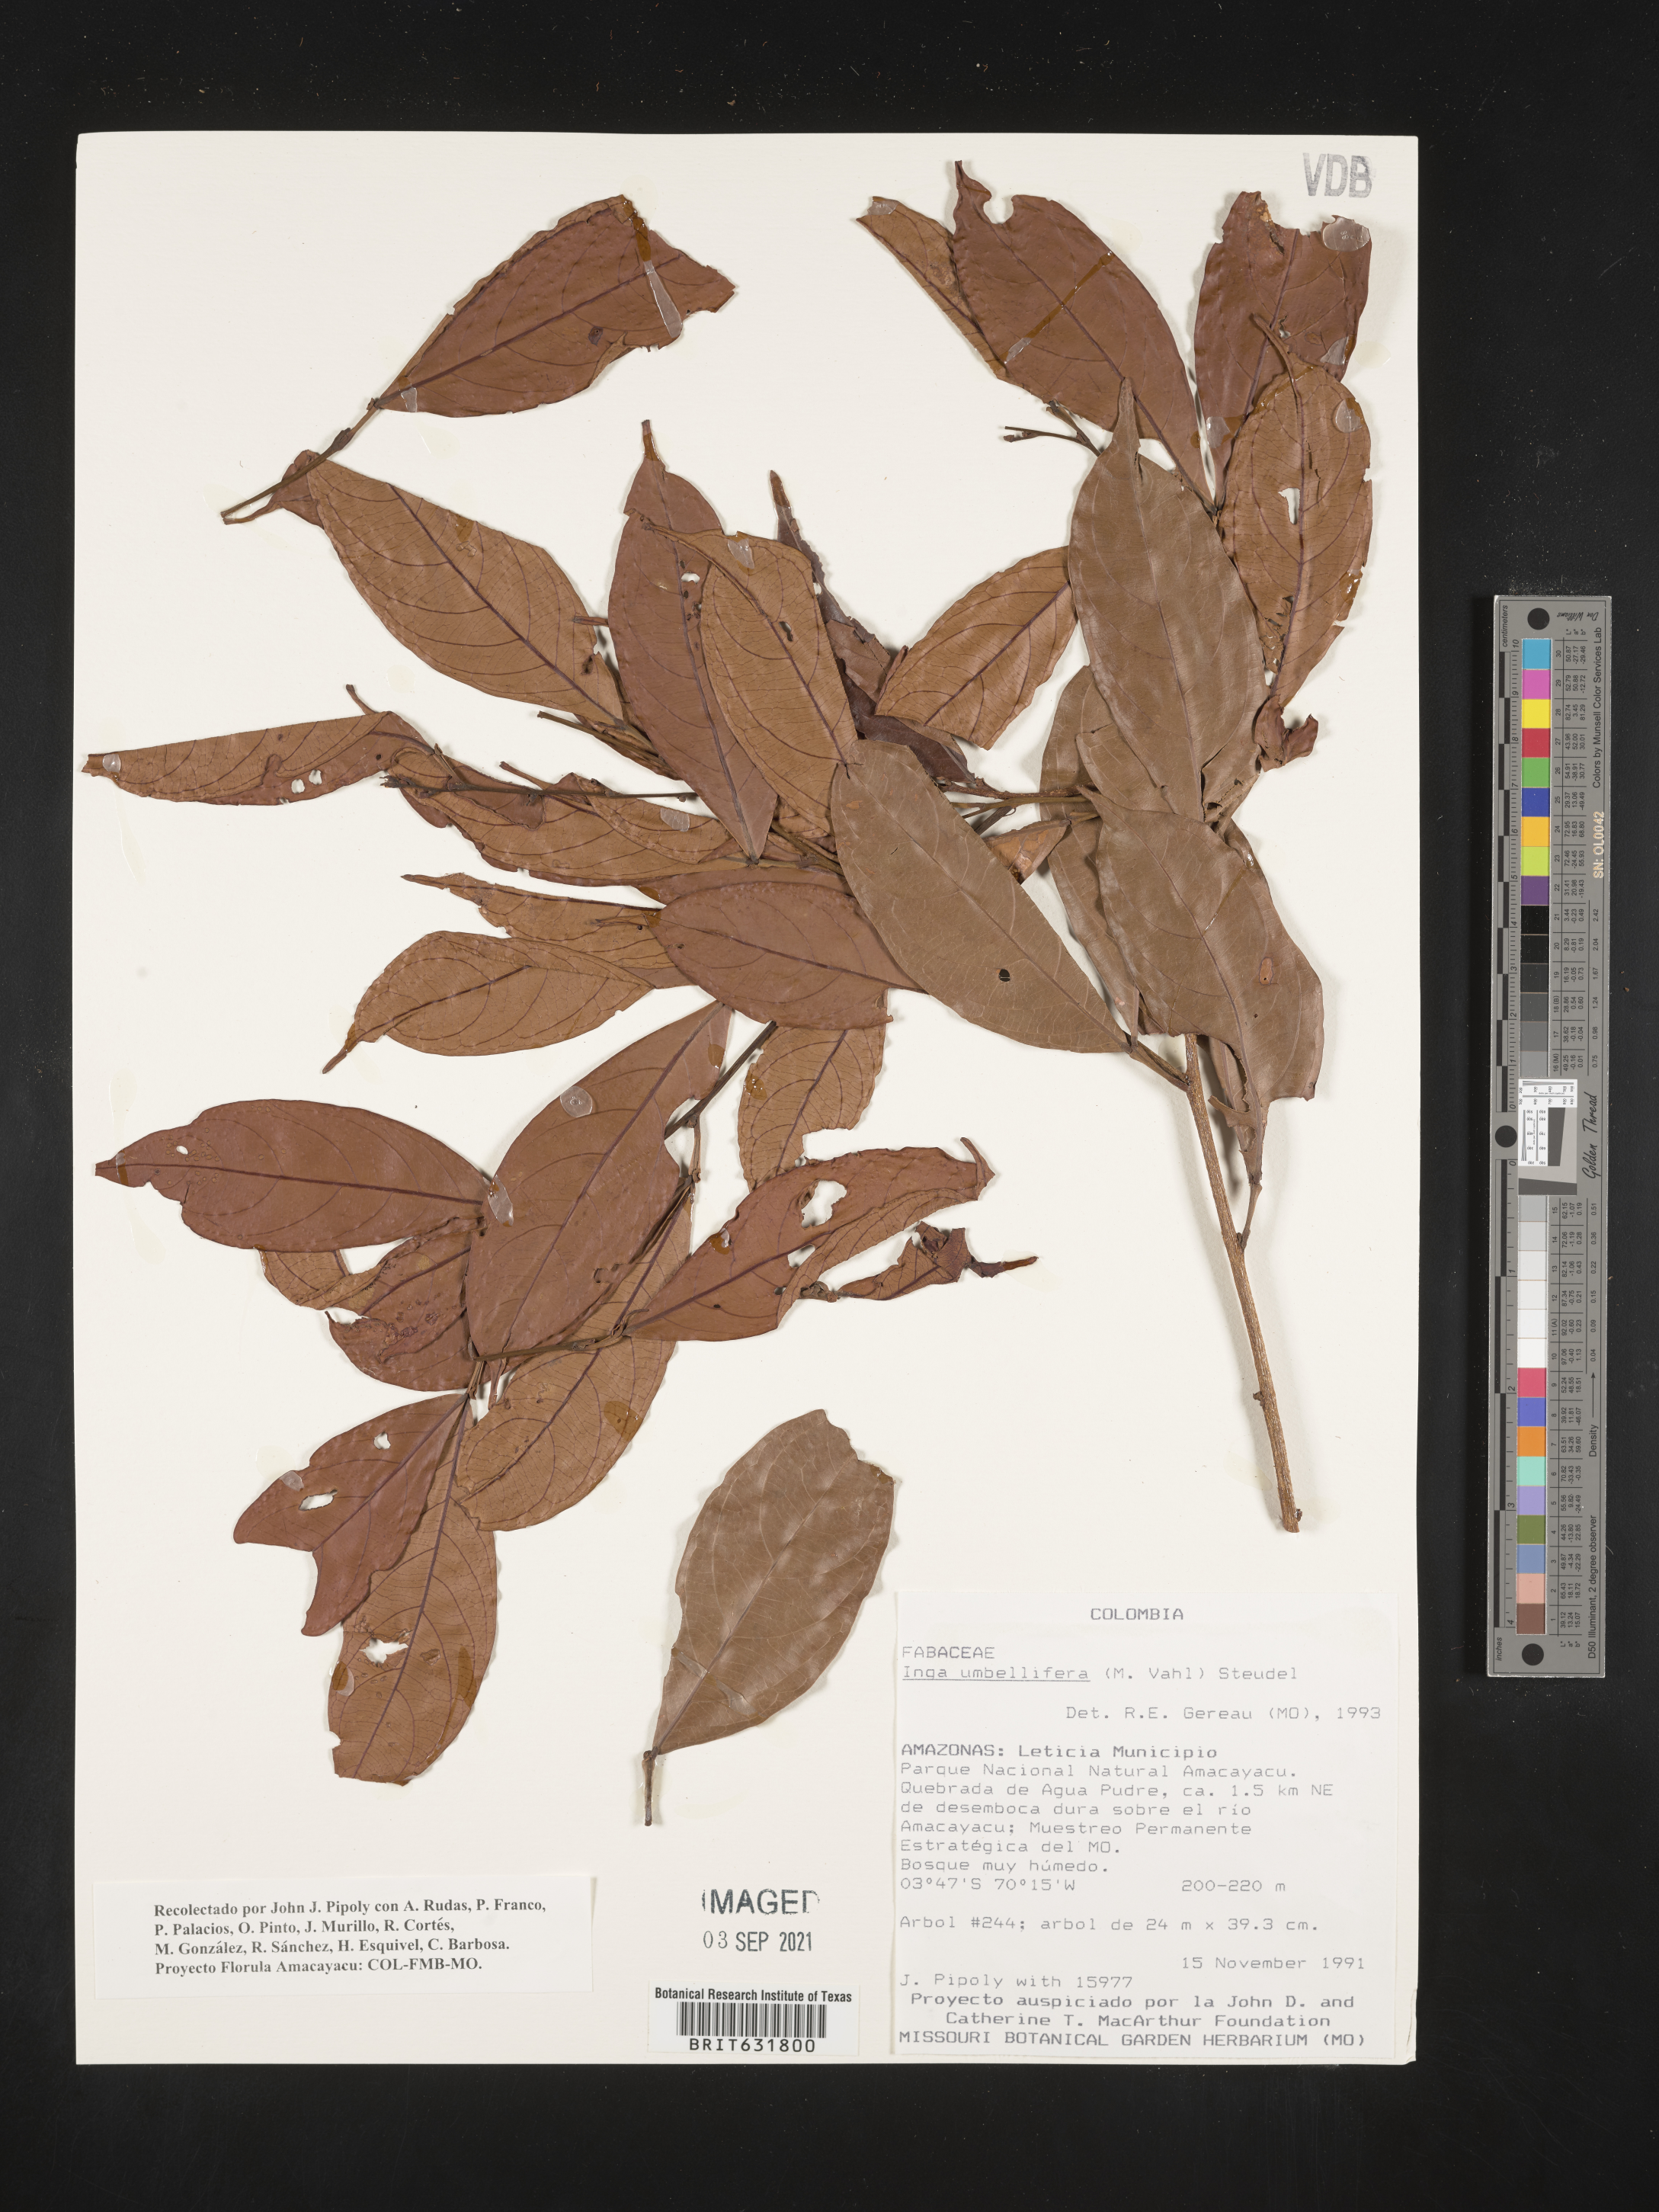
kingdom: Plantae
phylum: Tracheophyta
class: Magnoliopsida
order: Fabales
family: Fabaceae
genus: Inga
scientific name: Inga
